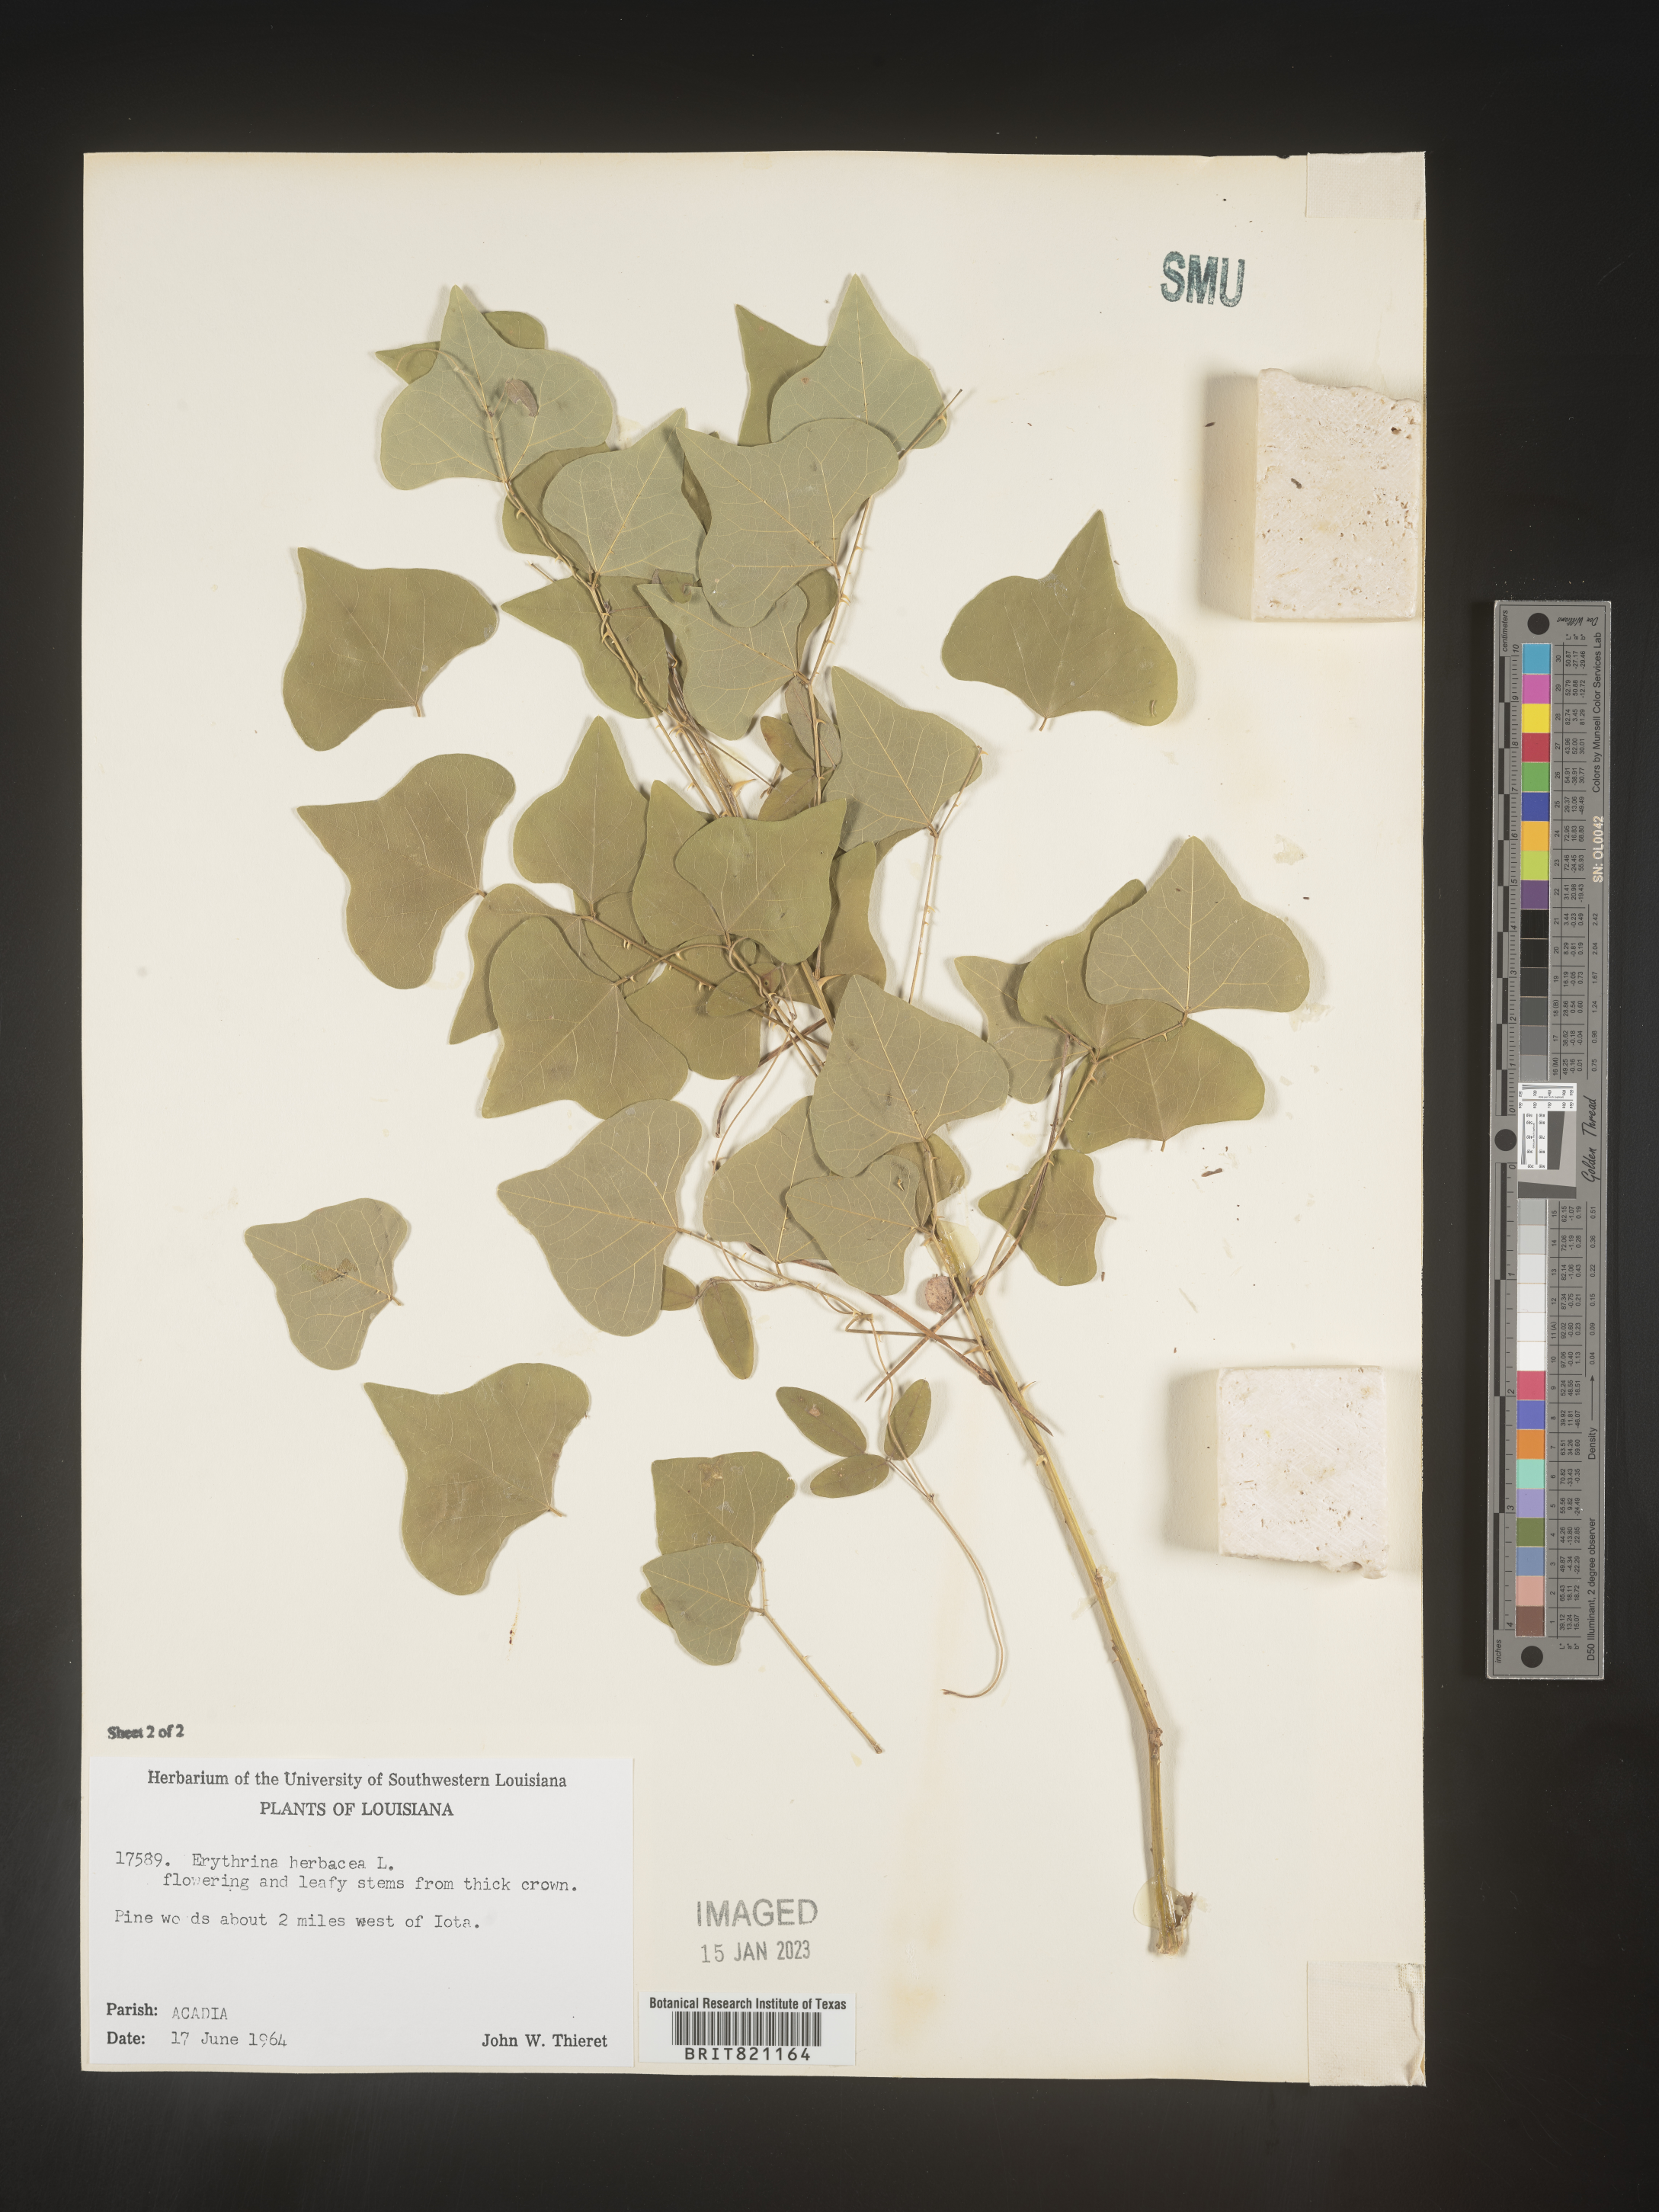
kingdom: Plantae
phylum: Tracheophyta
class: Magnoliopsida
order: Fabales
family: Fabaceae
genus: Erythrina
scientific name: Erythrina herbacea
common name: Coral-bean
